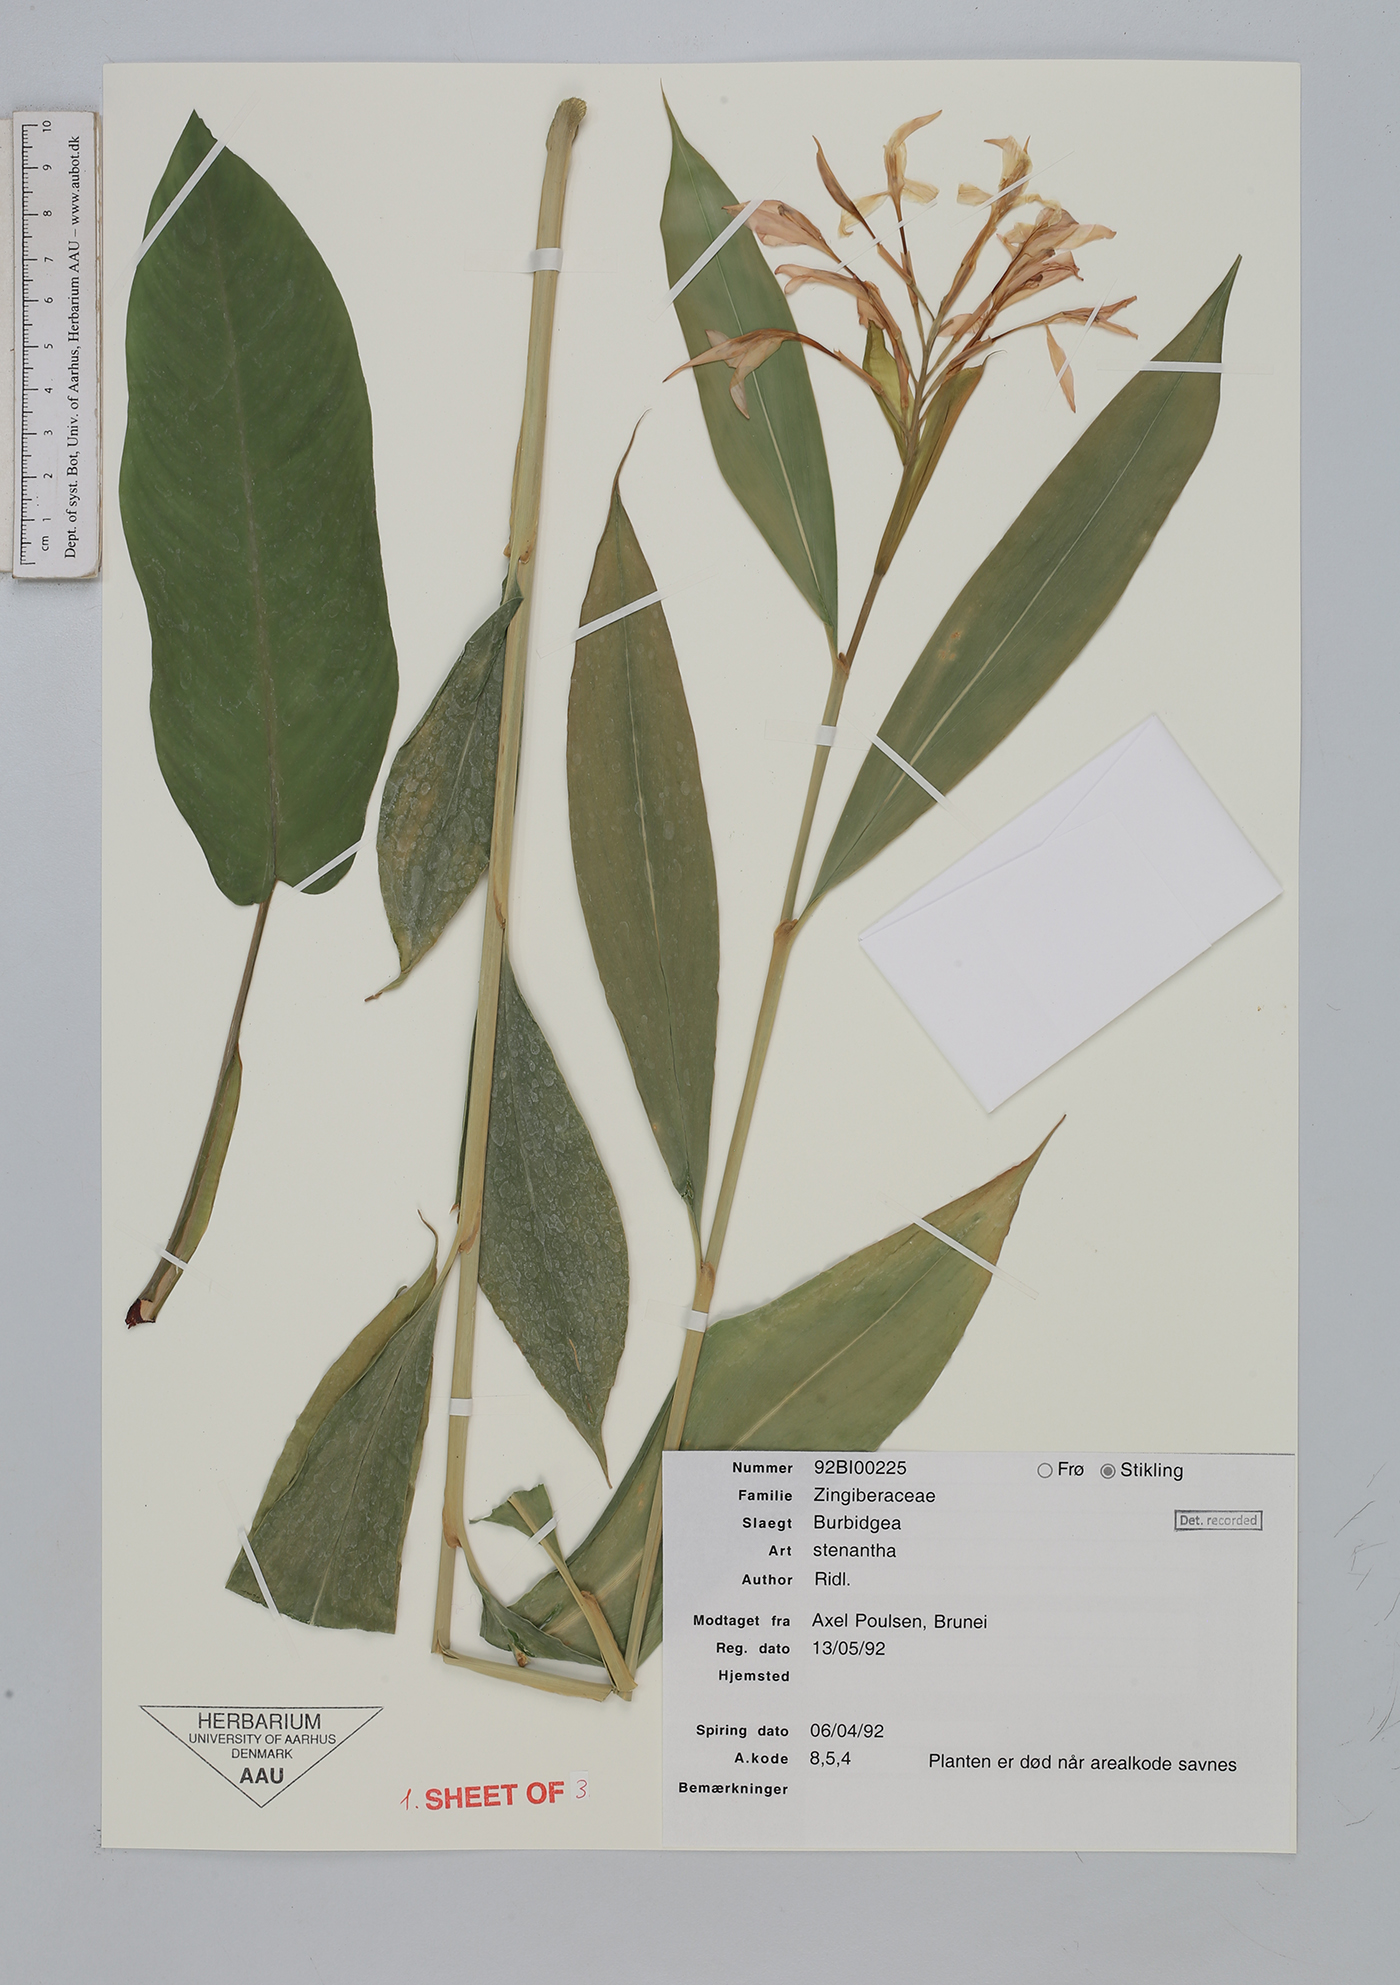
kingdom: Plantae
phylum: Tracheophyta
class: Liliopsida
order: Zingiberales
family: Zingiberaceae
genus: Burbidgea
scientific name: Burbidgea stenantha
